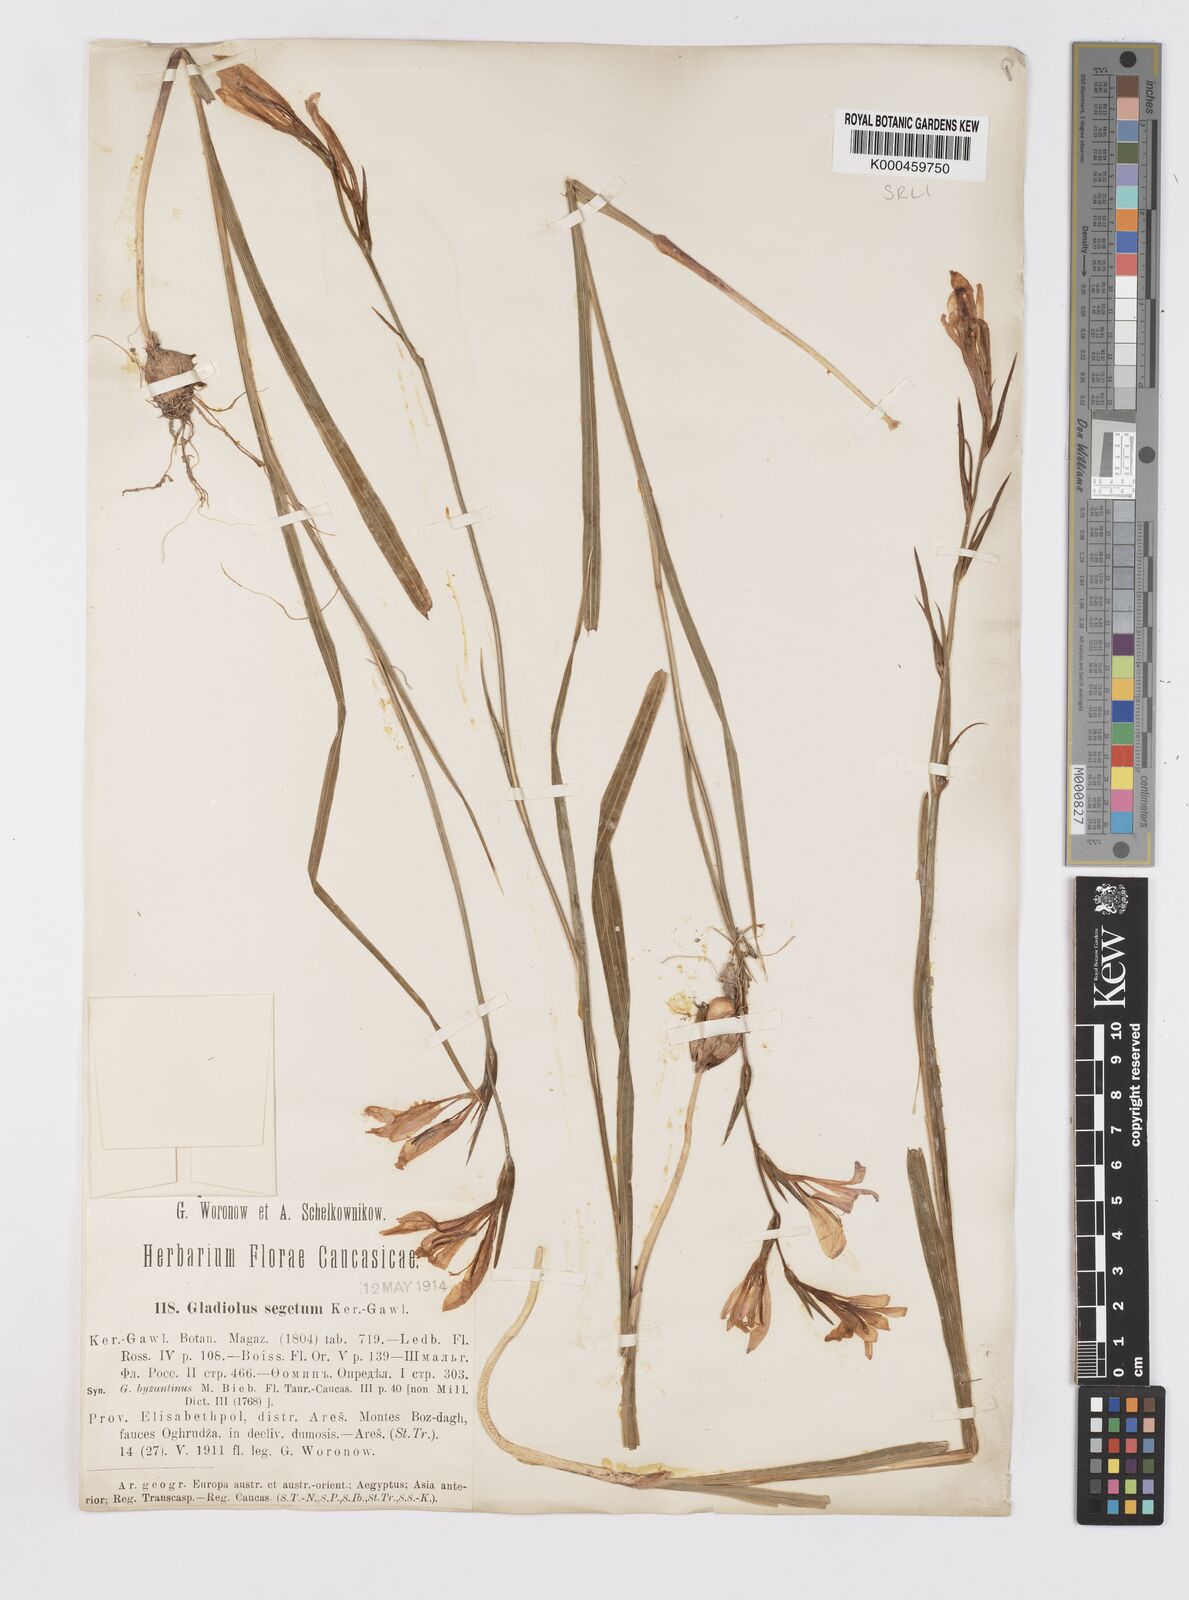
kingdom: Plantae
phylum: Tracheophyta
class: Liliopsida
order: Asparagales
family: Iridaceae
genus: Gladiolus
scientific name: Gladiolus italicus
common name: Field gladiolus
